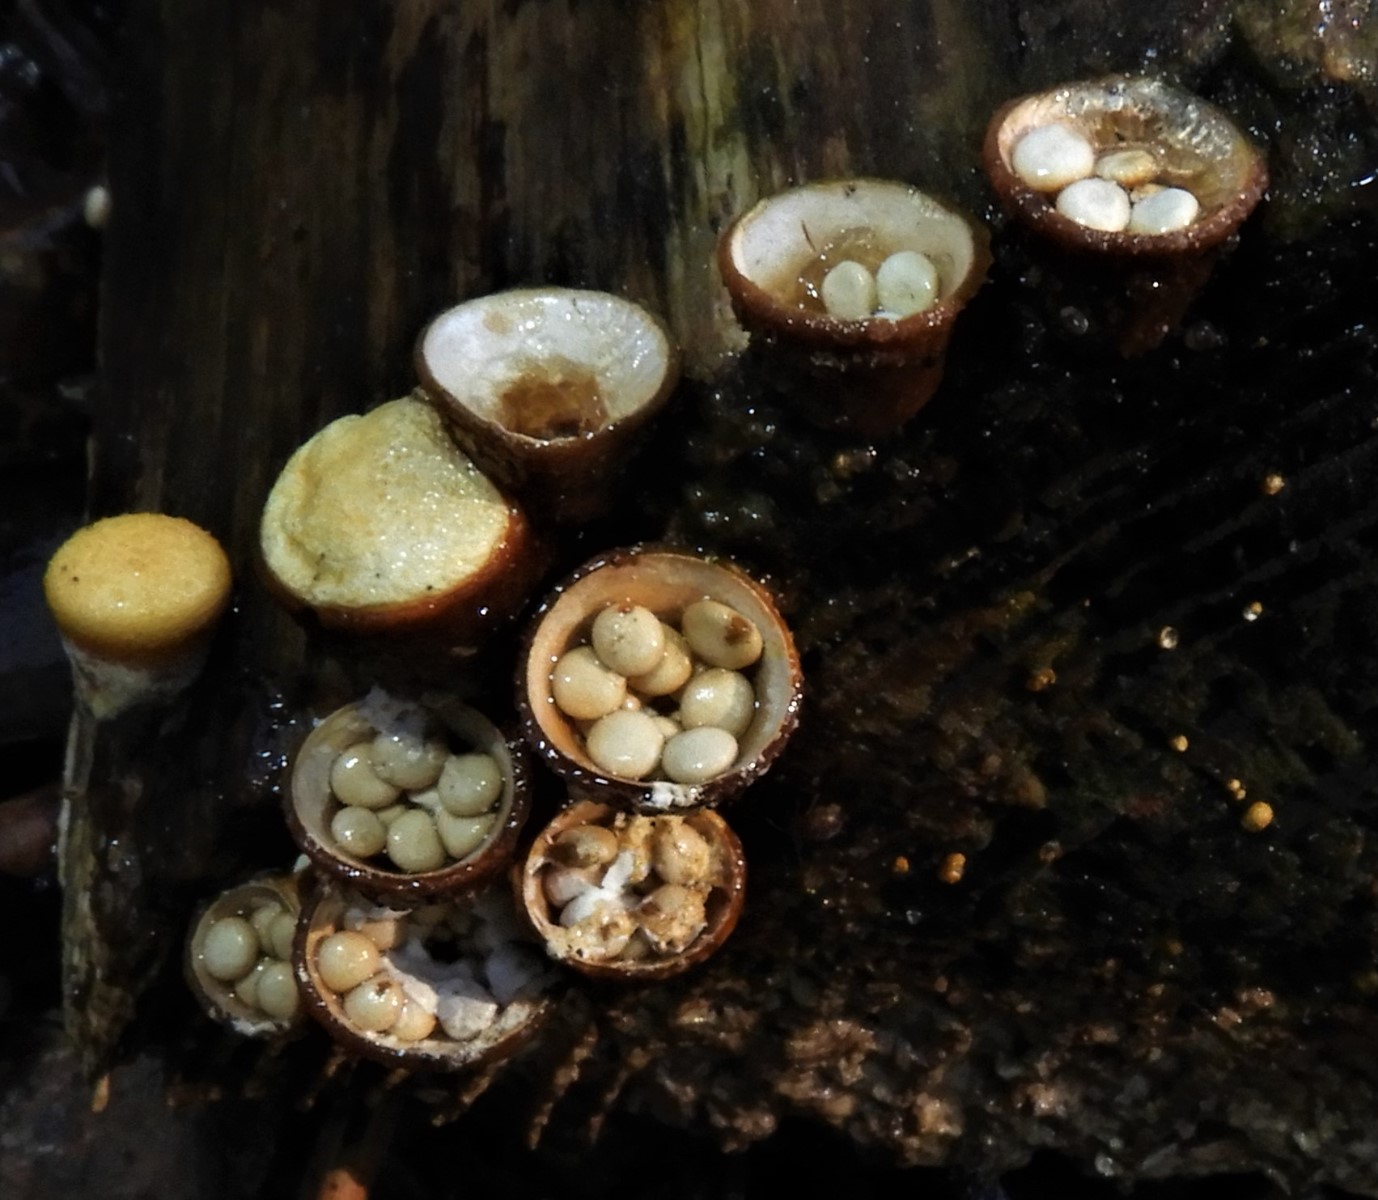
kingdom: Fungi
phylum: Basidiomycota
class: Agaricomycetes
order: Agaricales
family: Nidulariaceae
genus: Crucibulum
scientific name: Crucibulum crucibuliforme
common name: krukkesvamp
